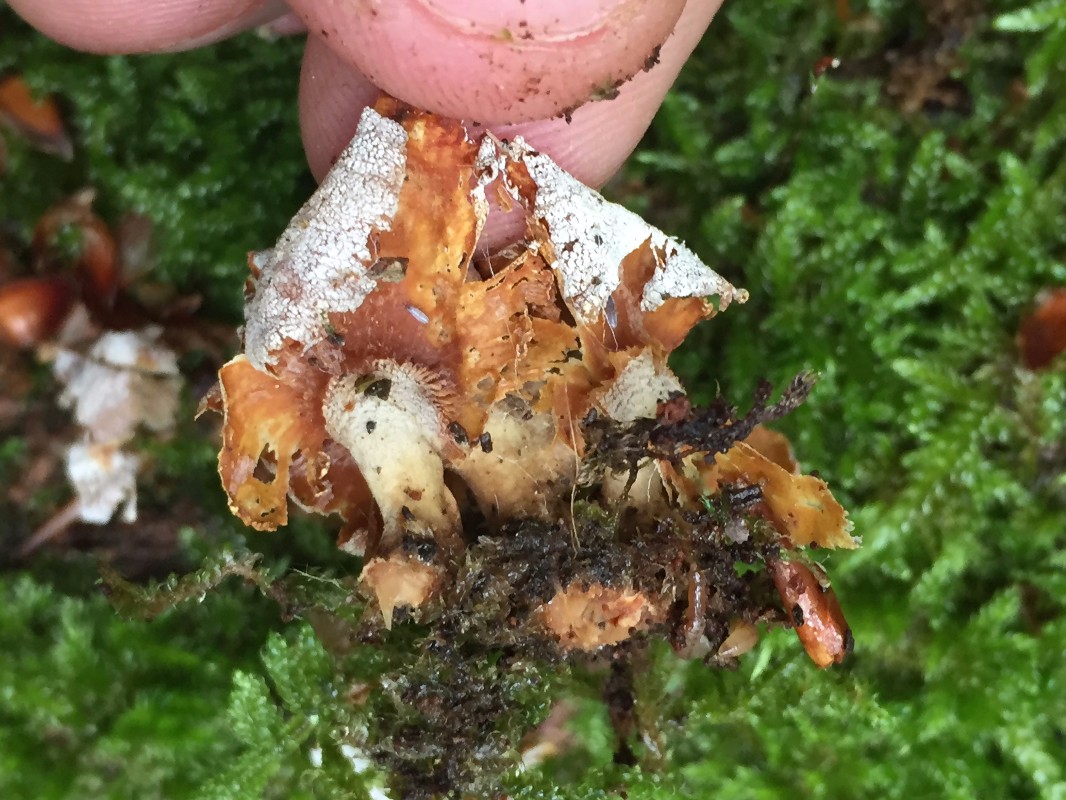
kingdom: Fungi
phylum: Basidiomycota
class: Agaricomycetes
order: Agaricales
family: Mycenaceae
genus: Panellus
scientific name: Panellus stipticus
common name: kliddet epaulethat
